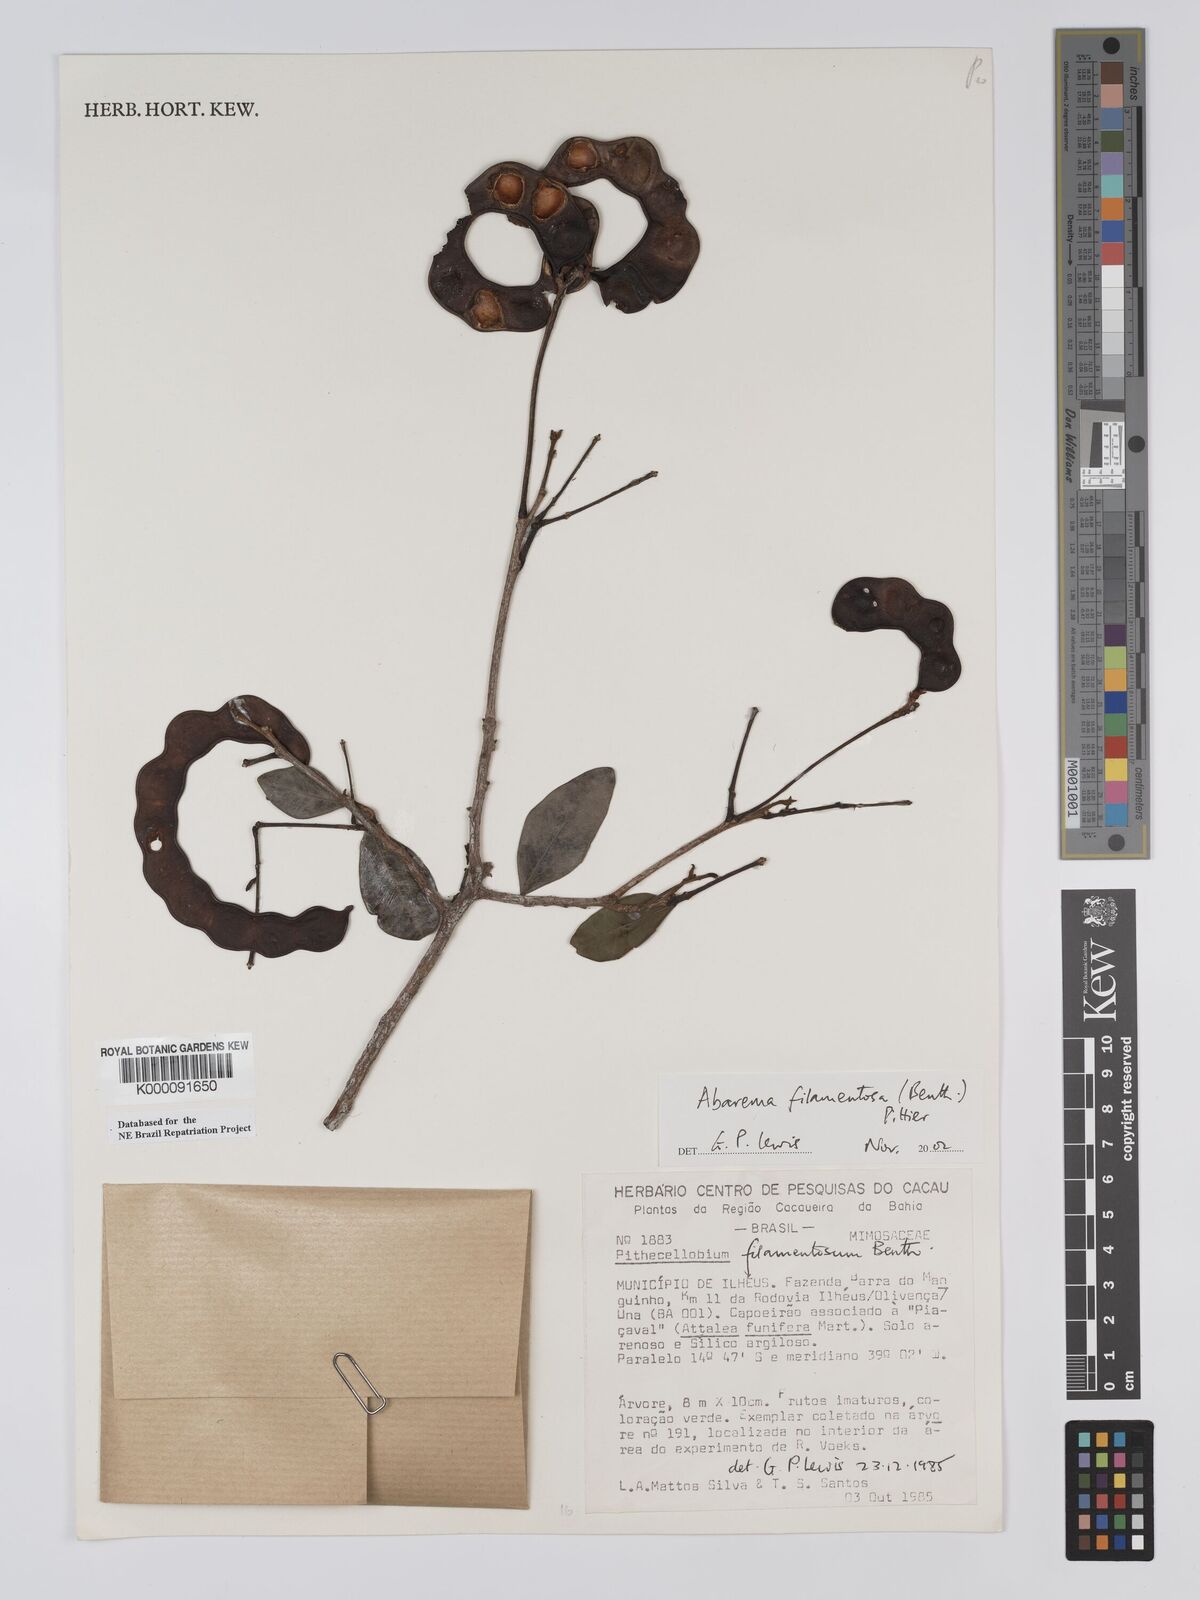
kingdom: Plantae
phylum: Tracheophyta
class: Magnoliopsida
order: Fabales
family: Fabaceae
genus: Jupunba
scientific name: Jupunba filamentosa
